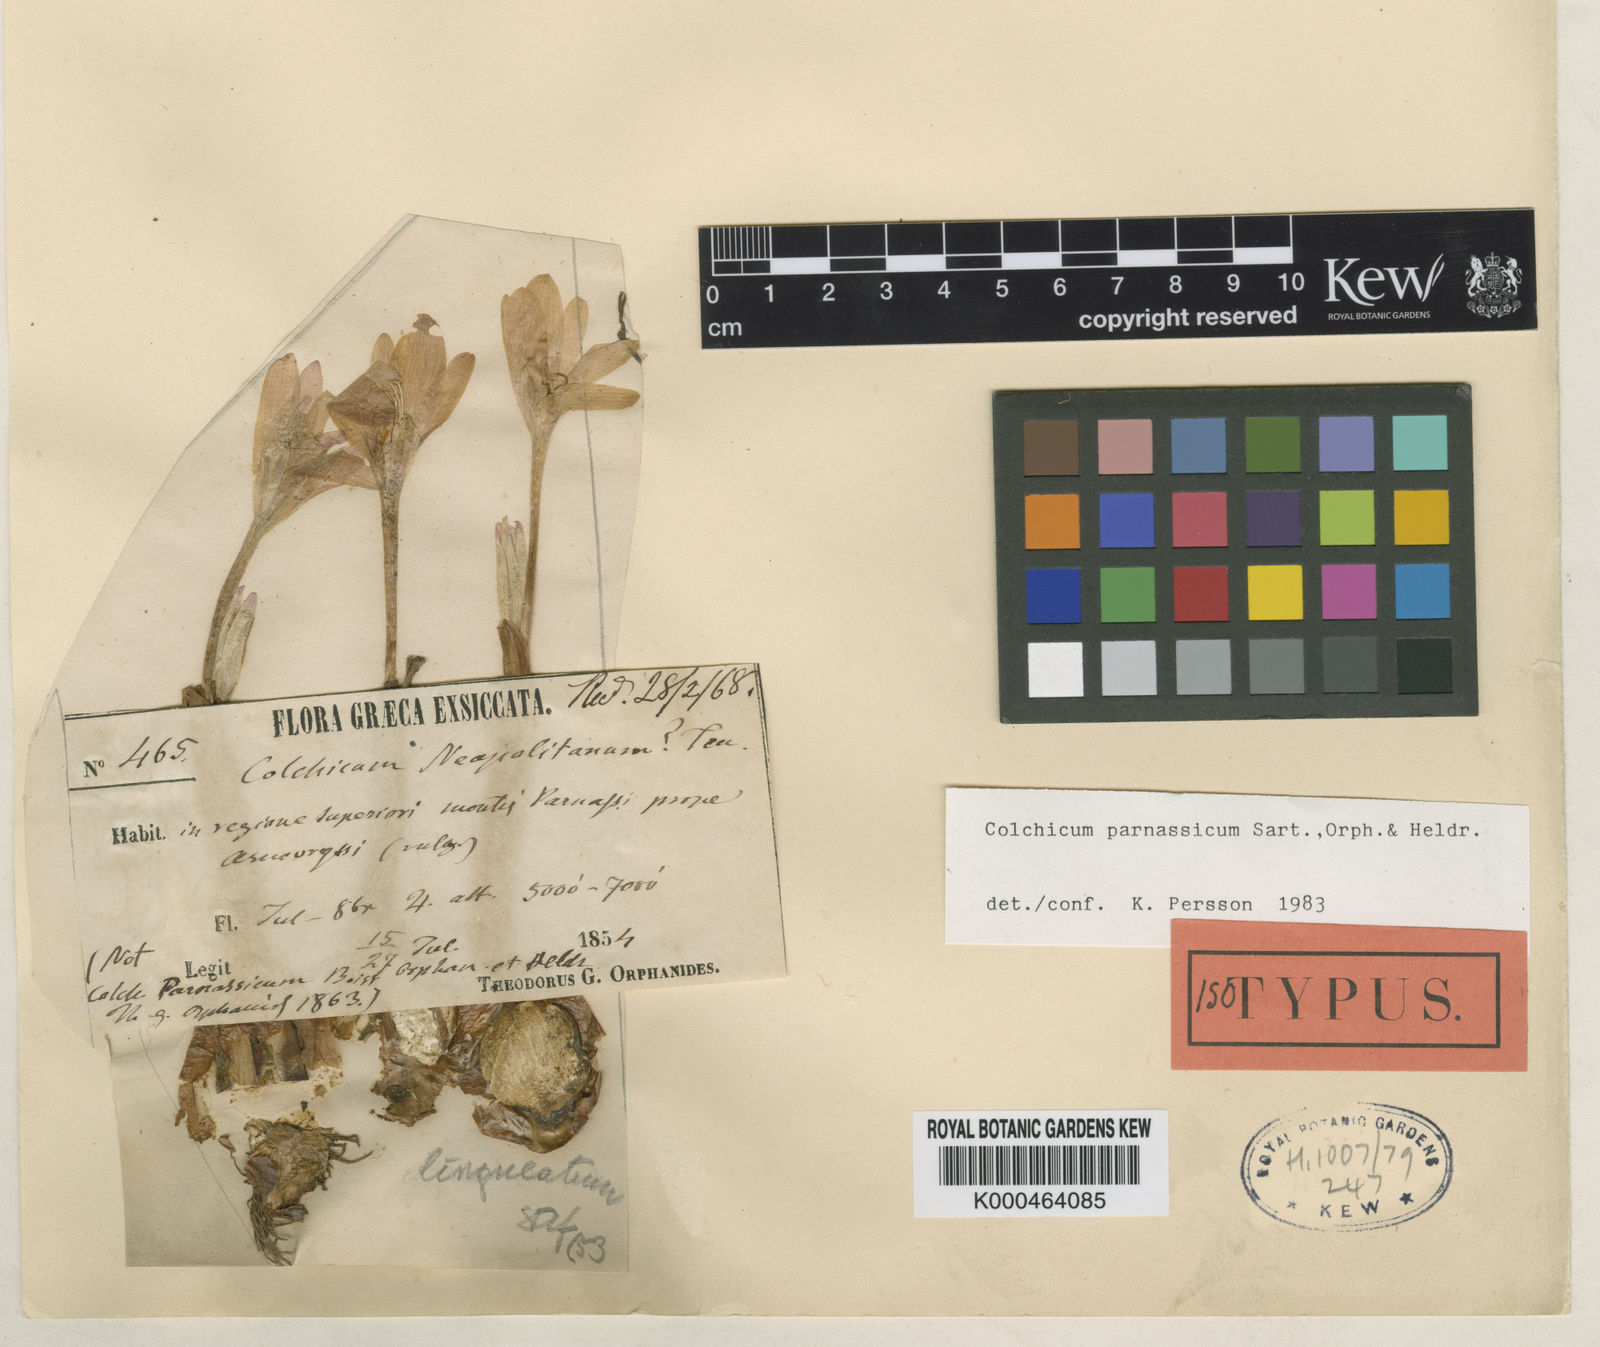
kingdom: Plantae
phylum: Tracheophyta
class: Liliopsida
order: Liliales
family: Colchicaceae
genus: Colchicum
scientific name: Colchicum parnassicum
